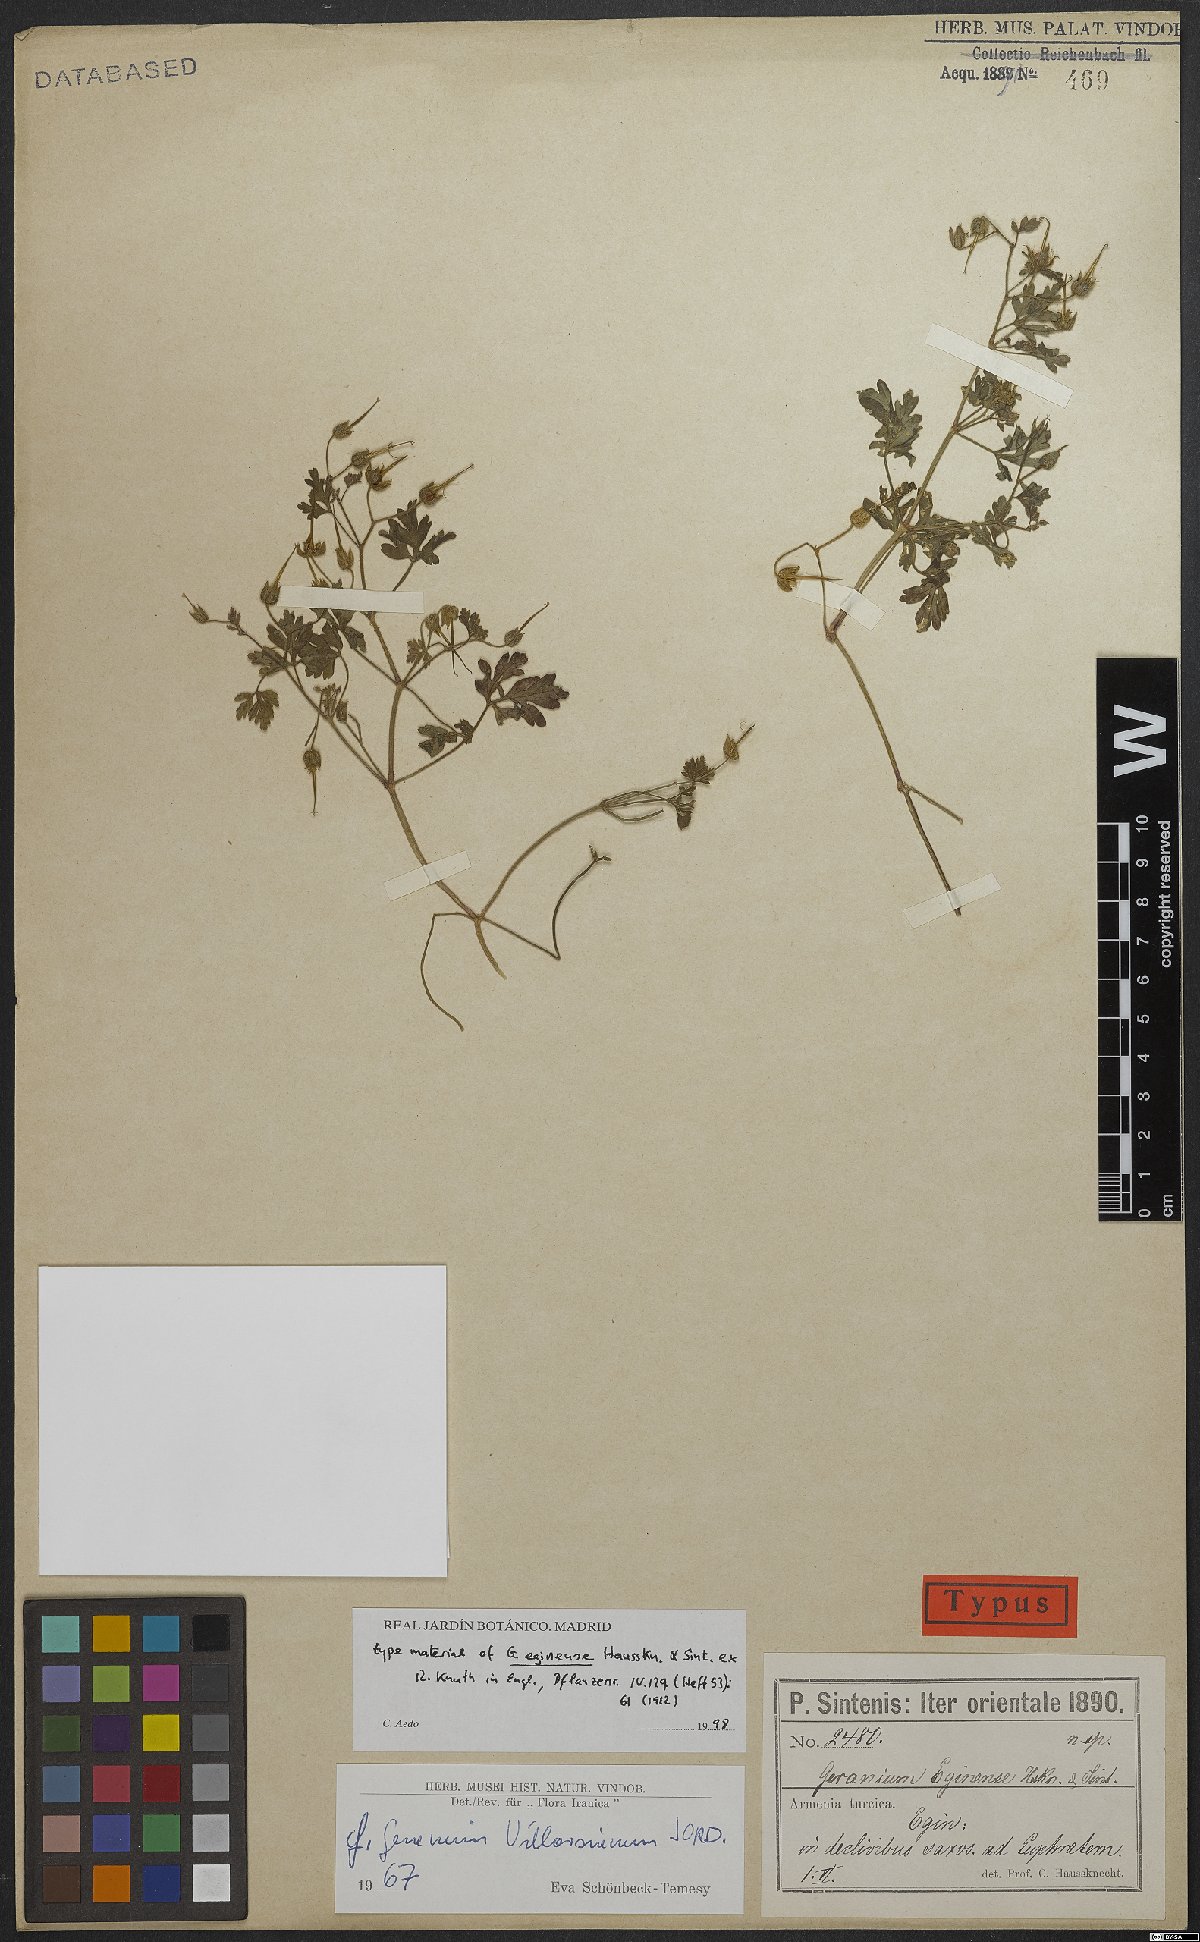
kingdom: Plantae
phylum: Tracheophyta
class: Magnoliopsida
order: Geraniales
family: Geraniaceae
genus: Geranium
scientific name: Geranium purpureum
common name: Little-robin
